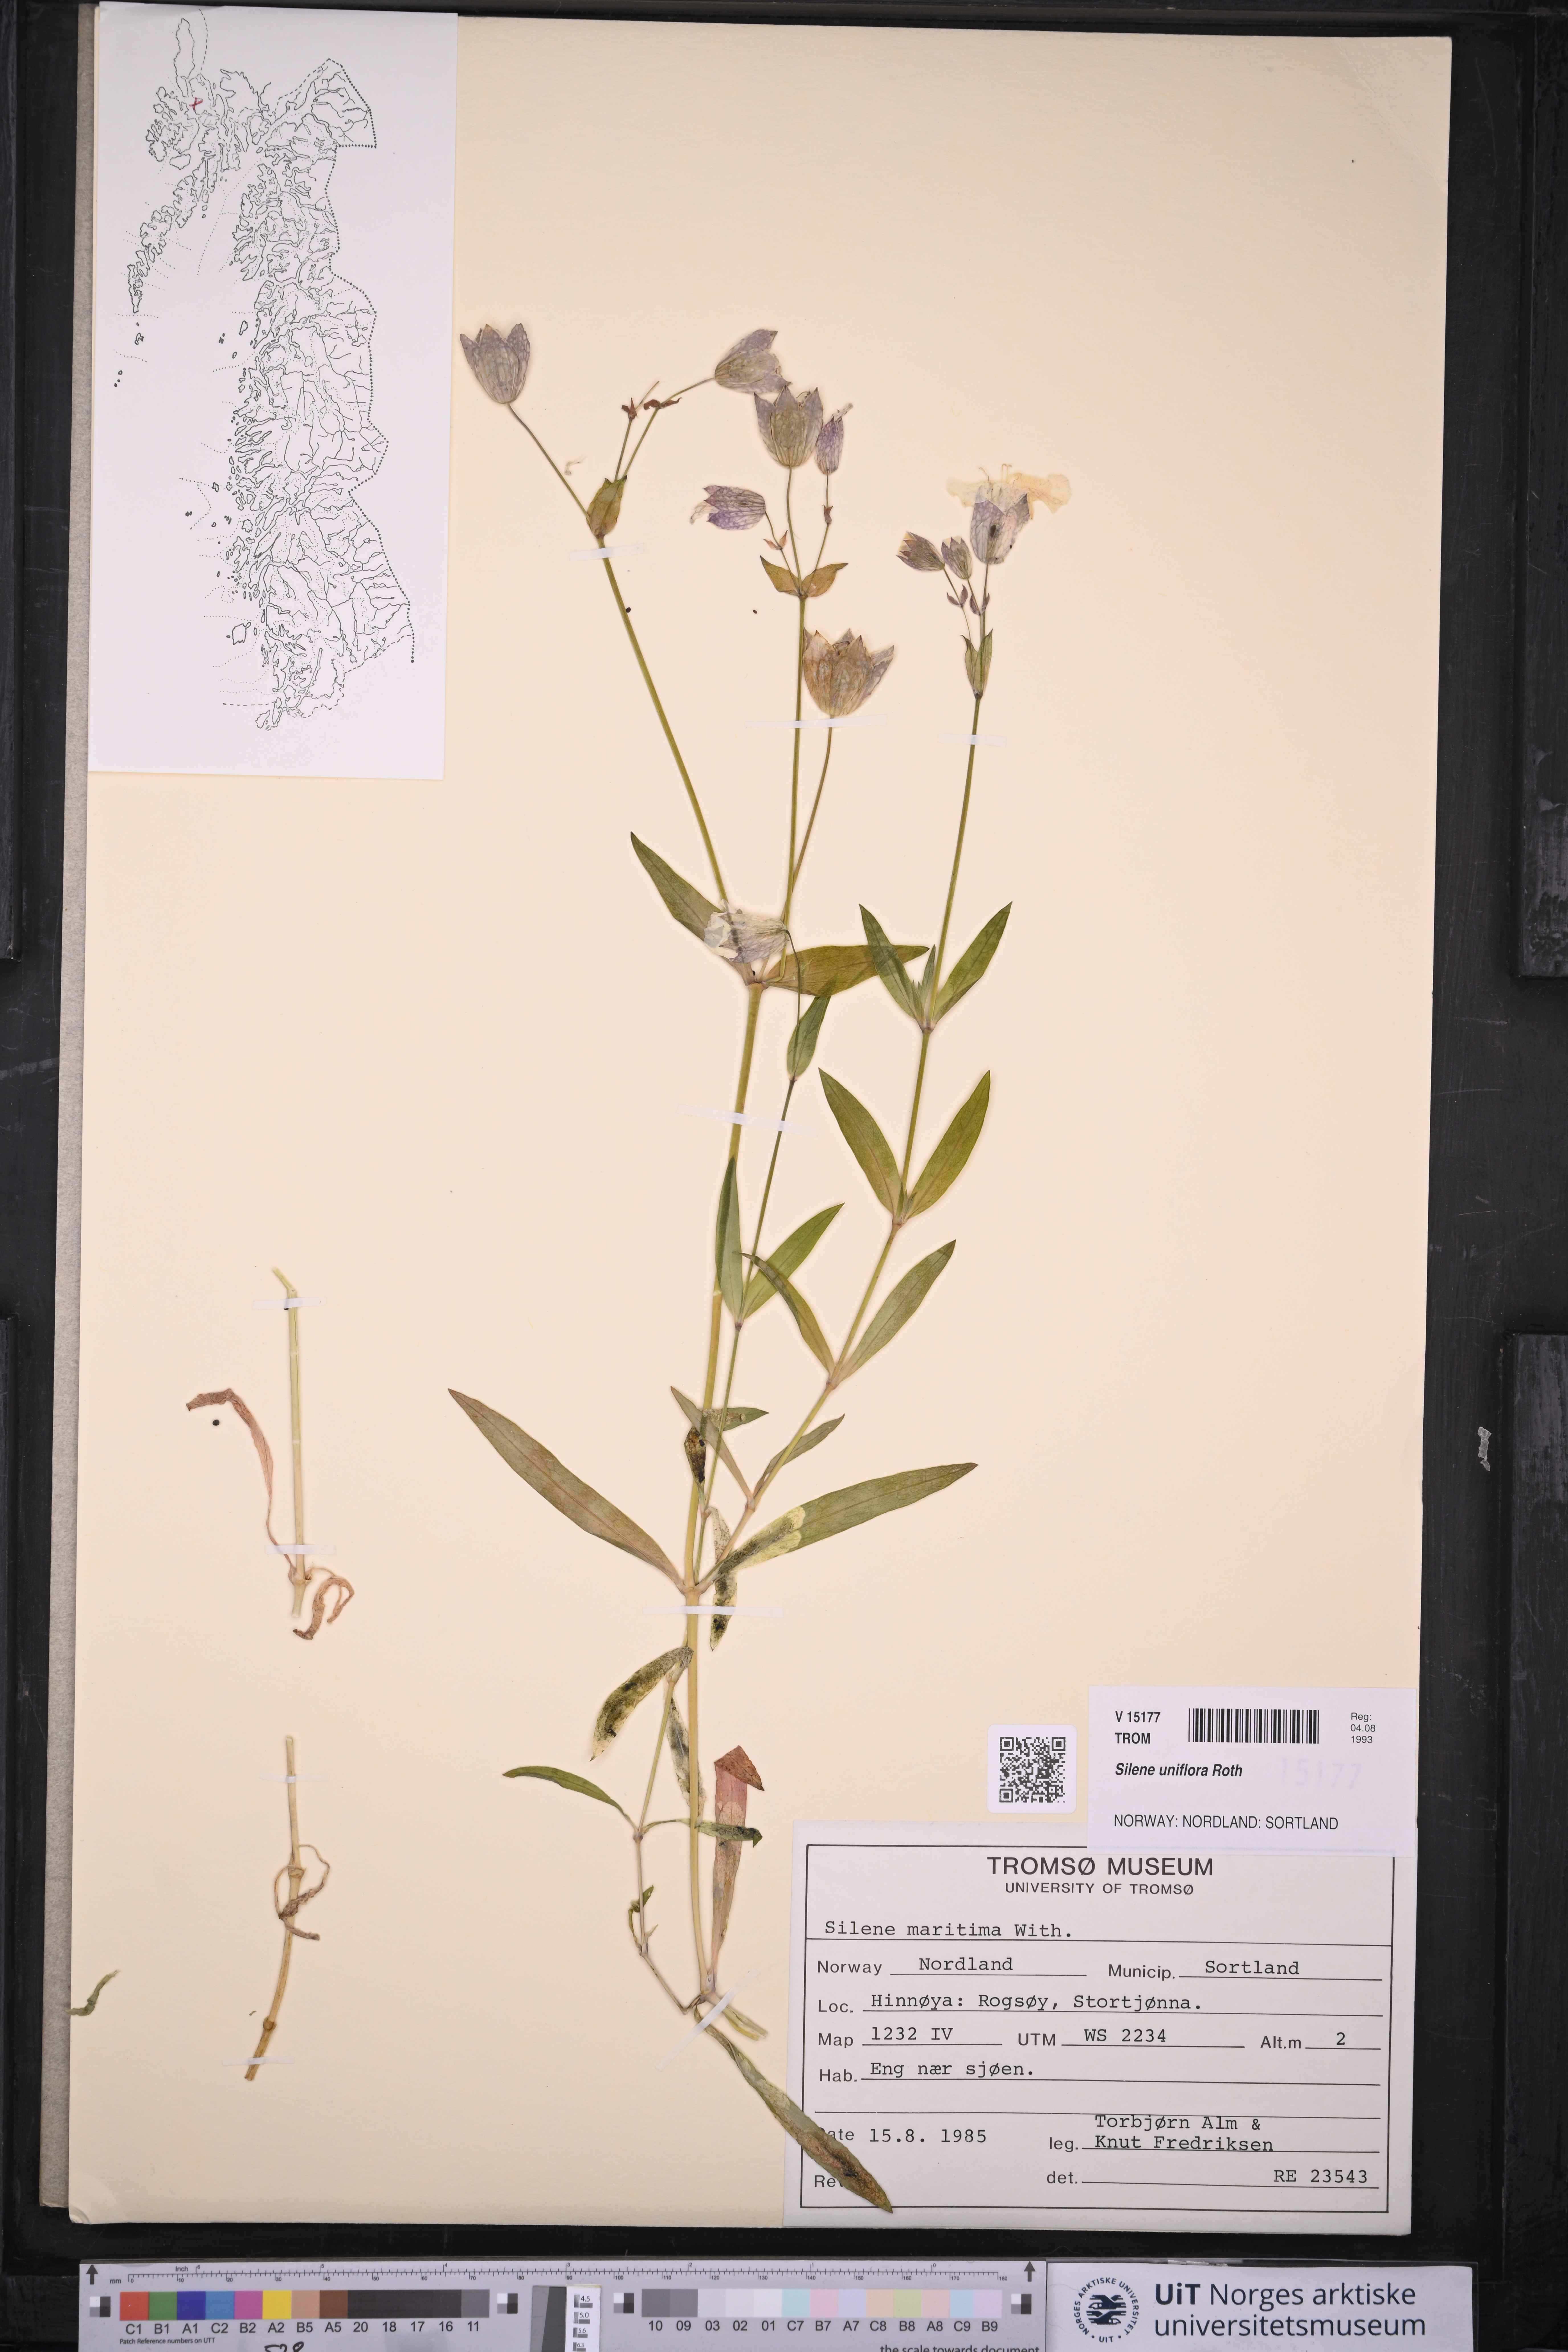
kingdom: Plantae
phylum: Tracheophyta
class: Magnoliopsida
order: Caryophyllales
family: Caryophyllaceae
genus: Silene
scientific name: Silene uniflora
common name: Sea campion
